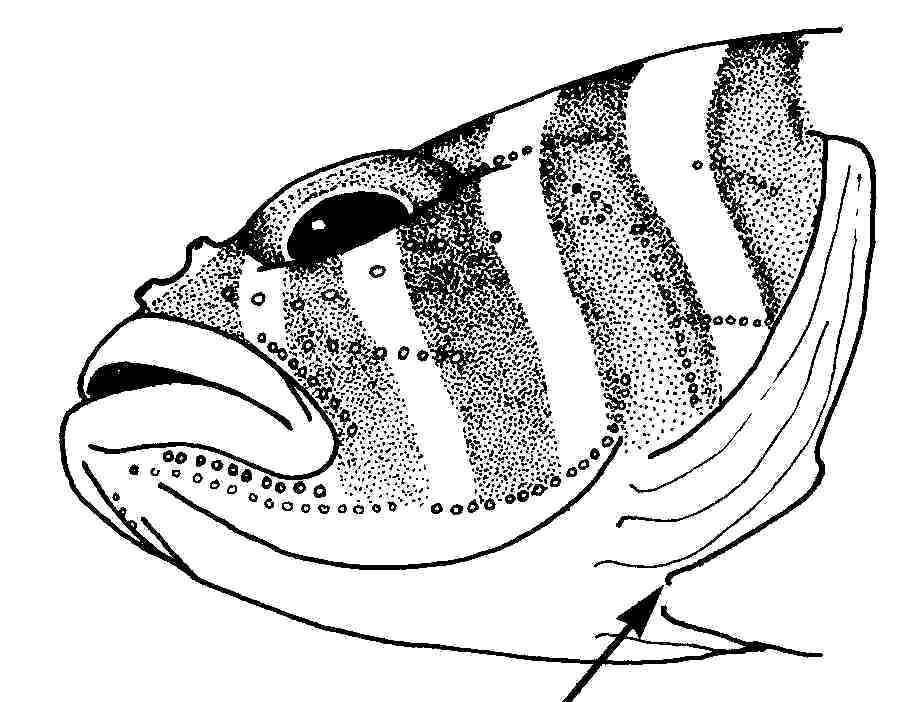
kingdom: Animalia
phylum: Chordata
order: Perciformes
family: Gobiidae
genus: Priolepis
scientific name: Priolepis cincta
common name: Banded reef-goby
